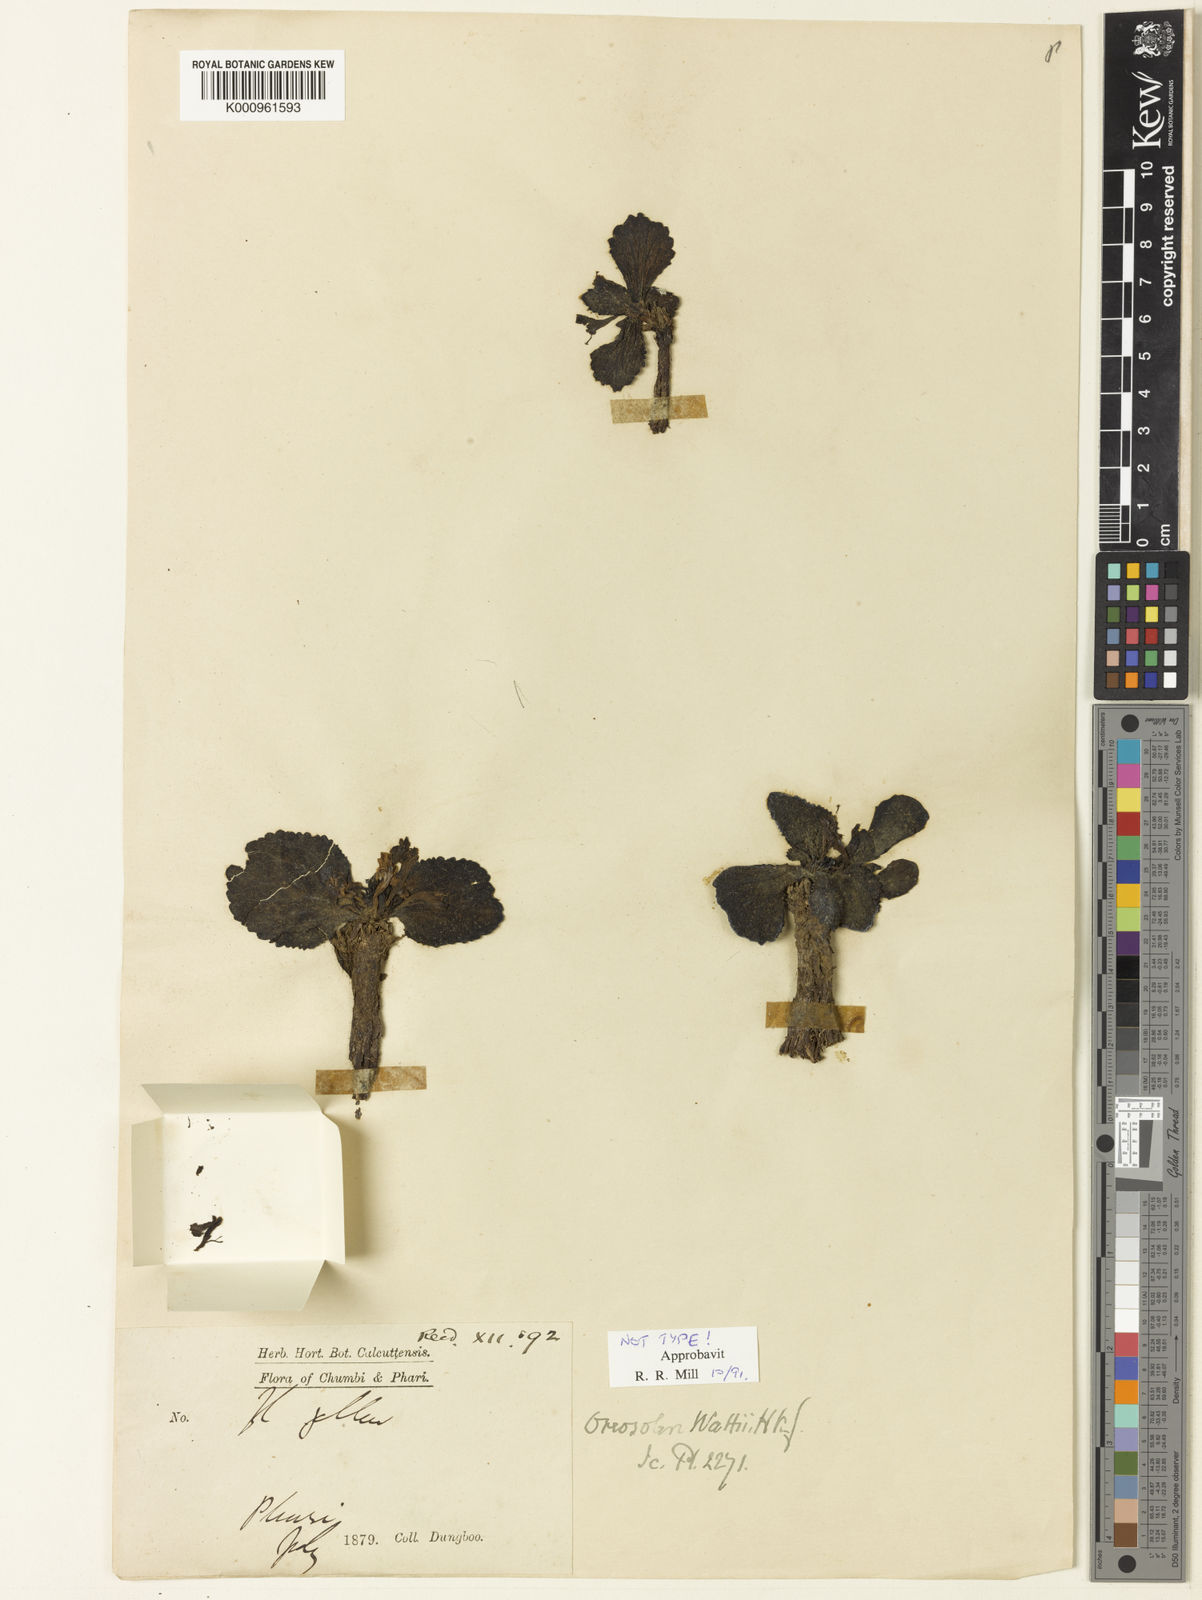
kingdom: Plantae
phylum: Tracheophyta
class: Magnoliopsida
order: Lamiales
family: Scrophulariaceae
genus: Scrophularia
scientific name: Scrophularia wattii
